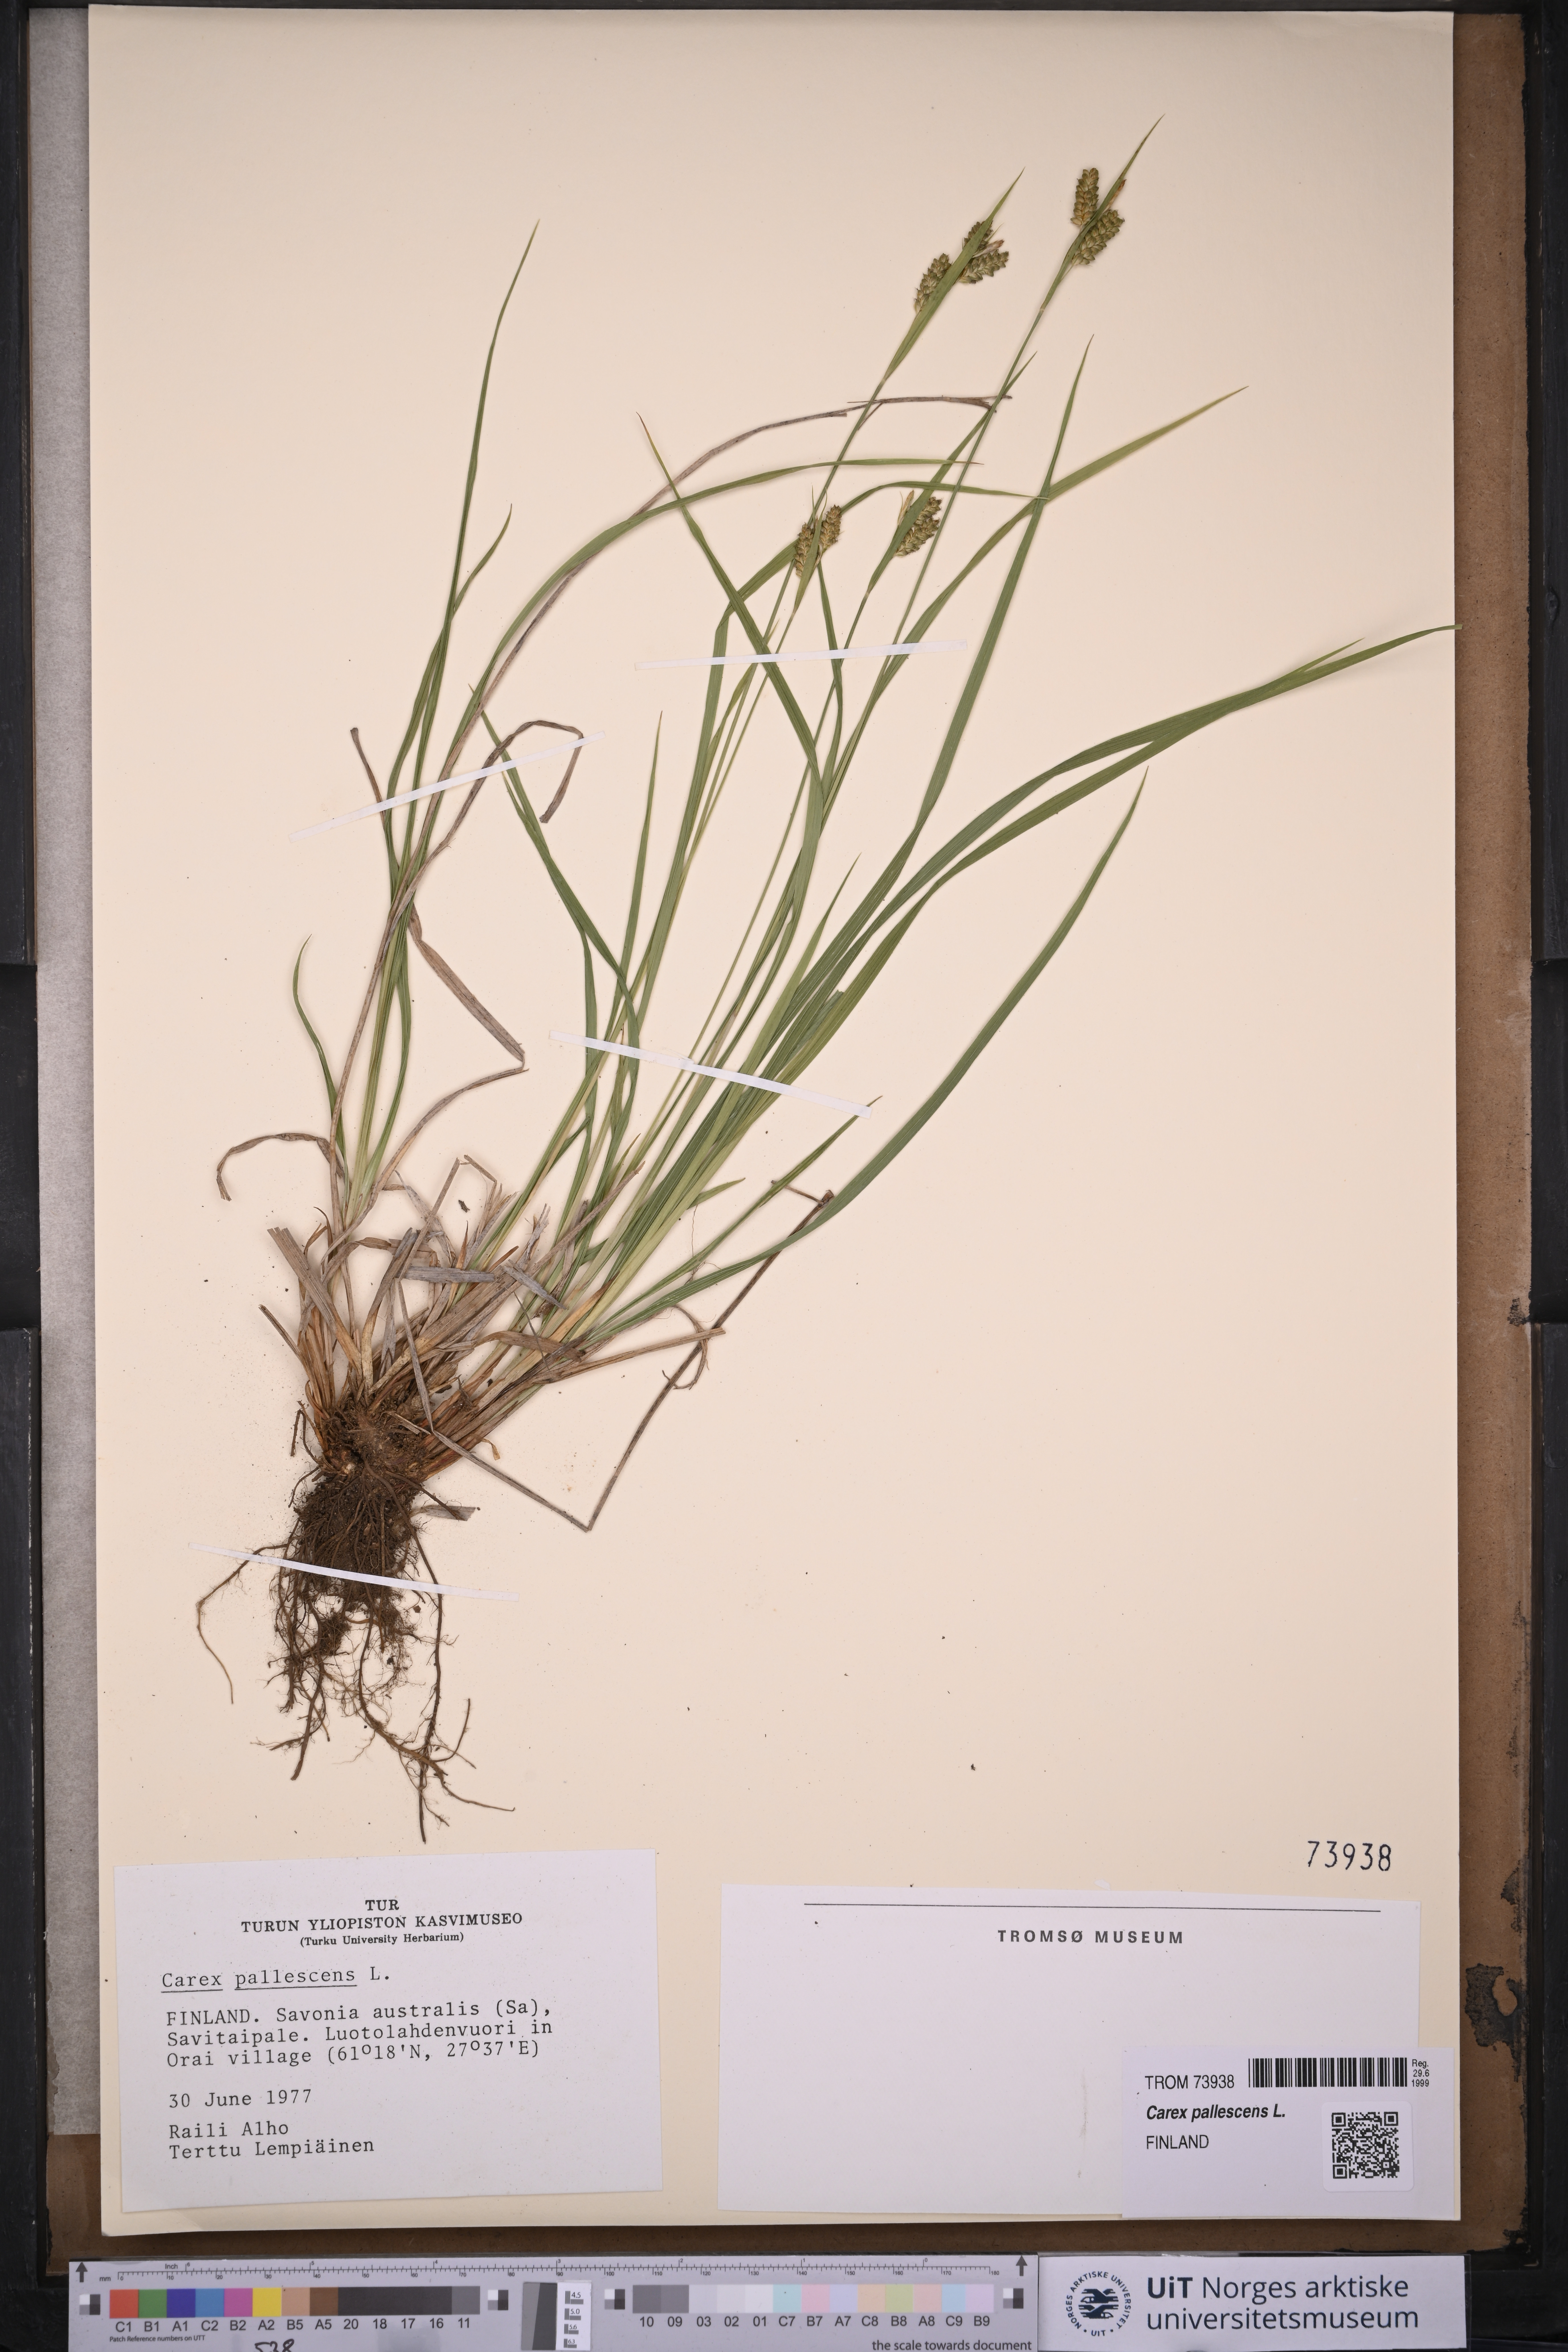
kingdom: Plantae
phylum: Tracheophyta
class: Liliopsida
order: Poales
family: Cyperaceae
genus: Carex
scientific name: Carex pallescens
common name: Pale sedge
